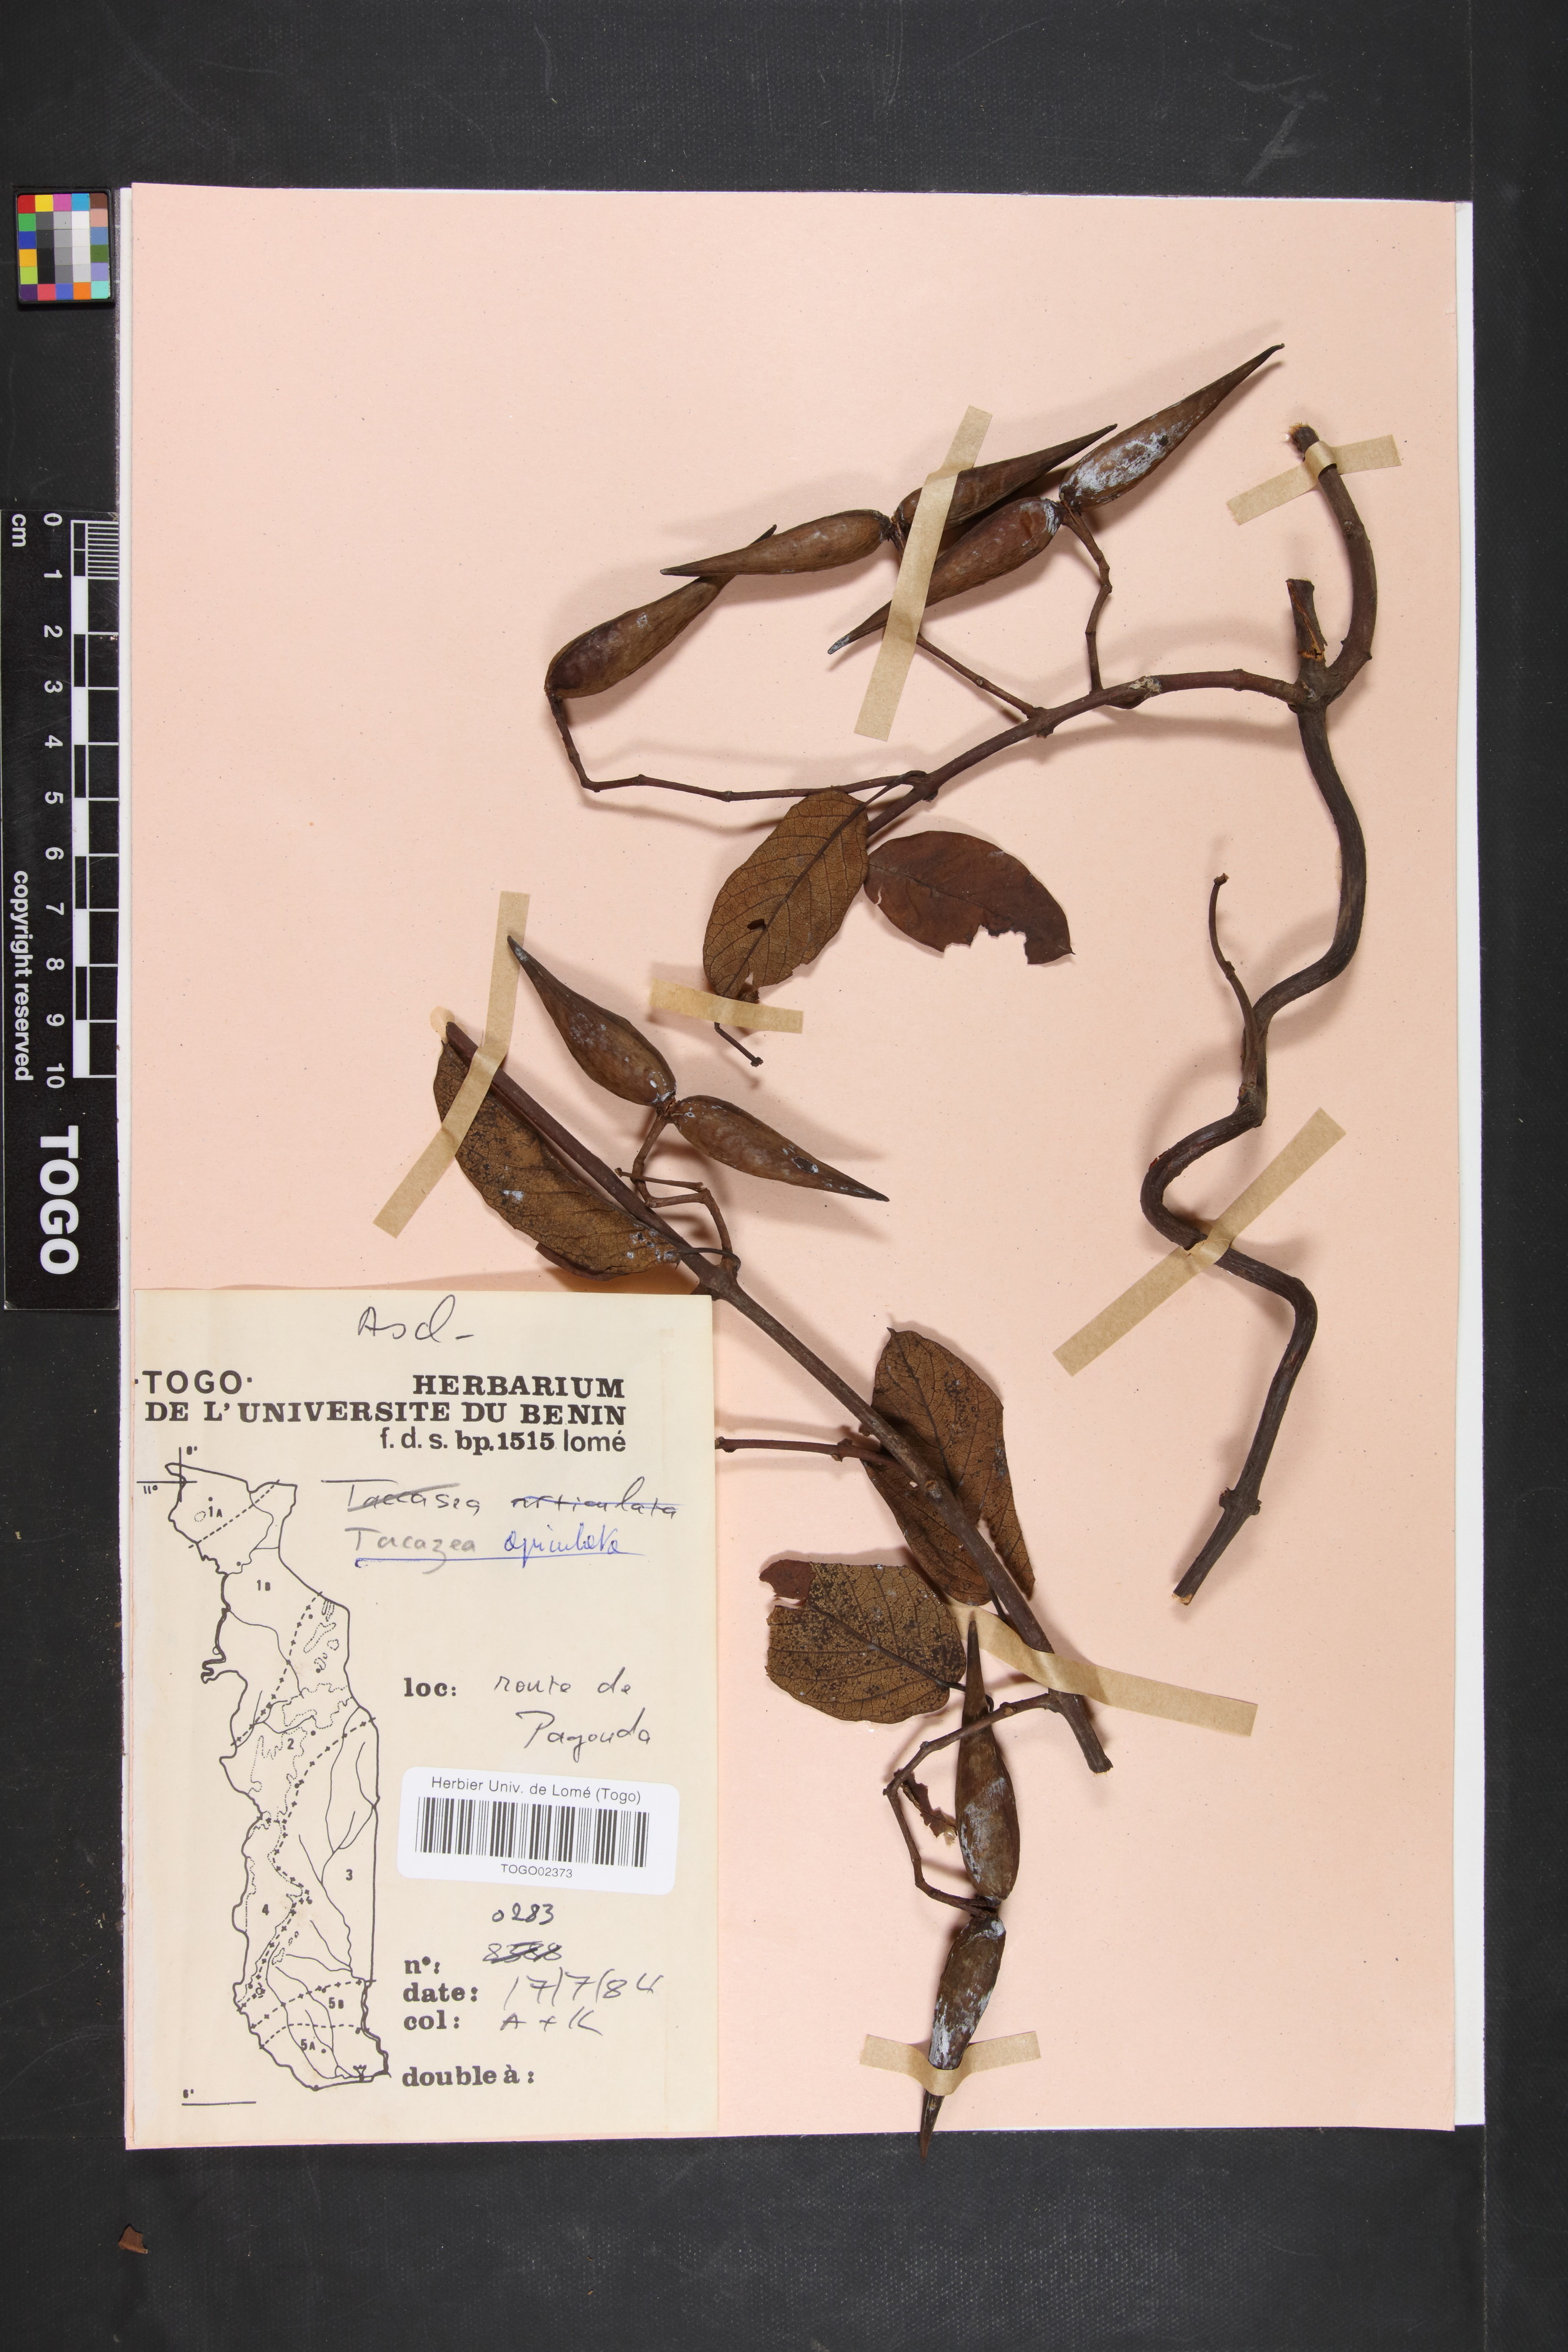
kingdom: Plantae
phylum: Tracheophyta
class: Magnoliopsida
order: Gentianales
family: Apocynaceae
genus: Tacazzea
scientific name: Tacazzea apiculata
